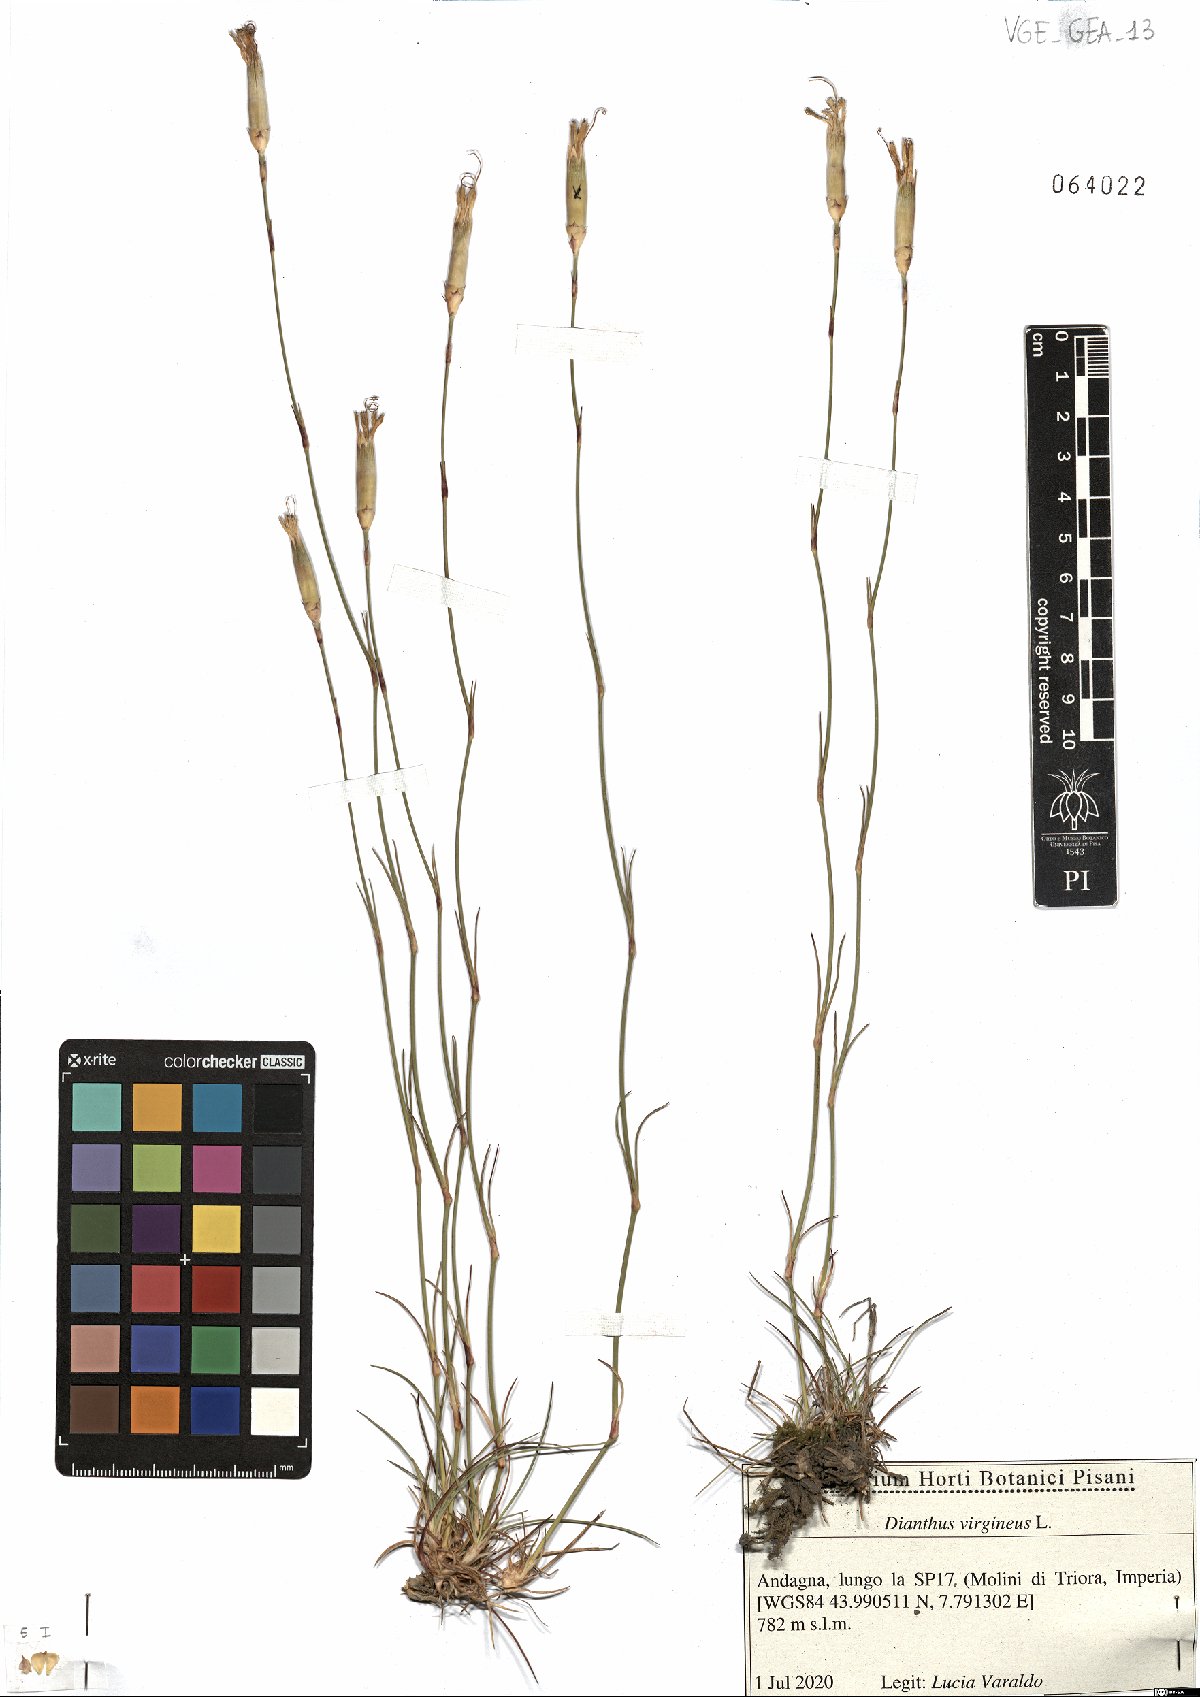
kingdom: Plantae
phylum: Tracheophyta
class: Magnoliopsida
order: Caryophyllales
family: Caryophyllaceae
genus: Dianthus
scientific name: Dianthus virgineus
